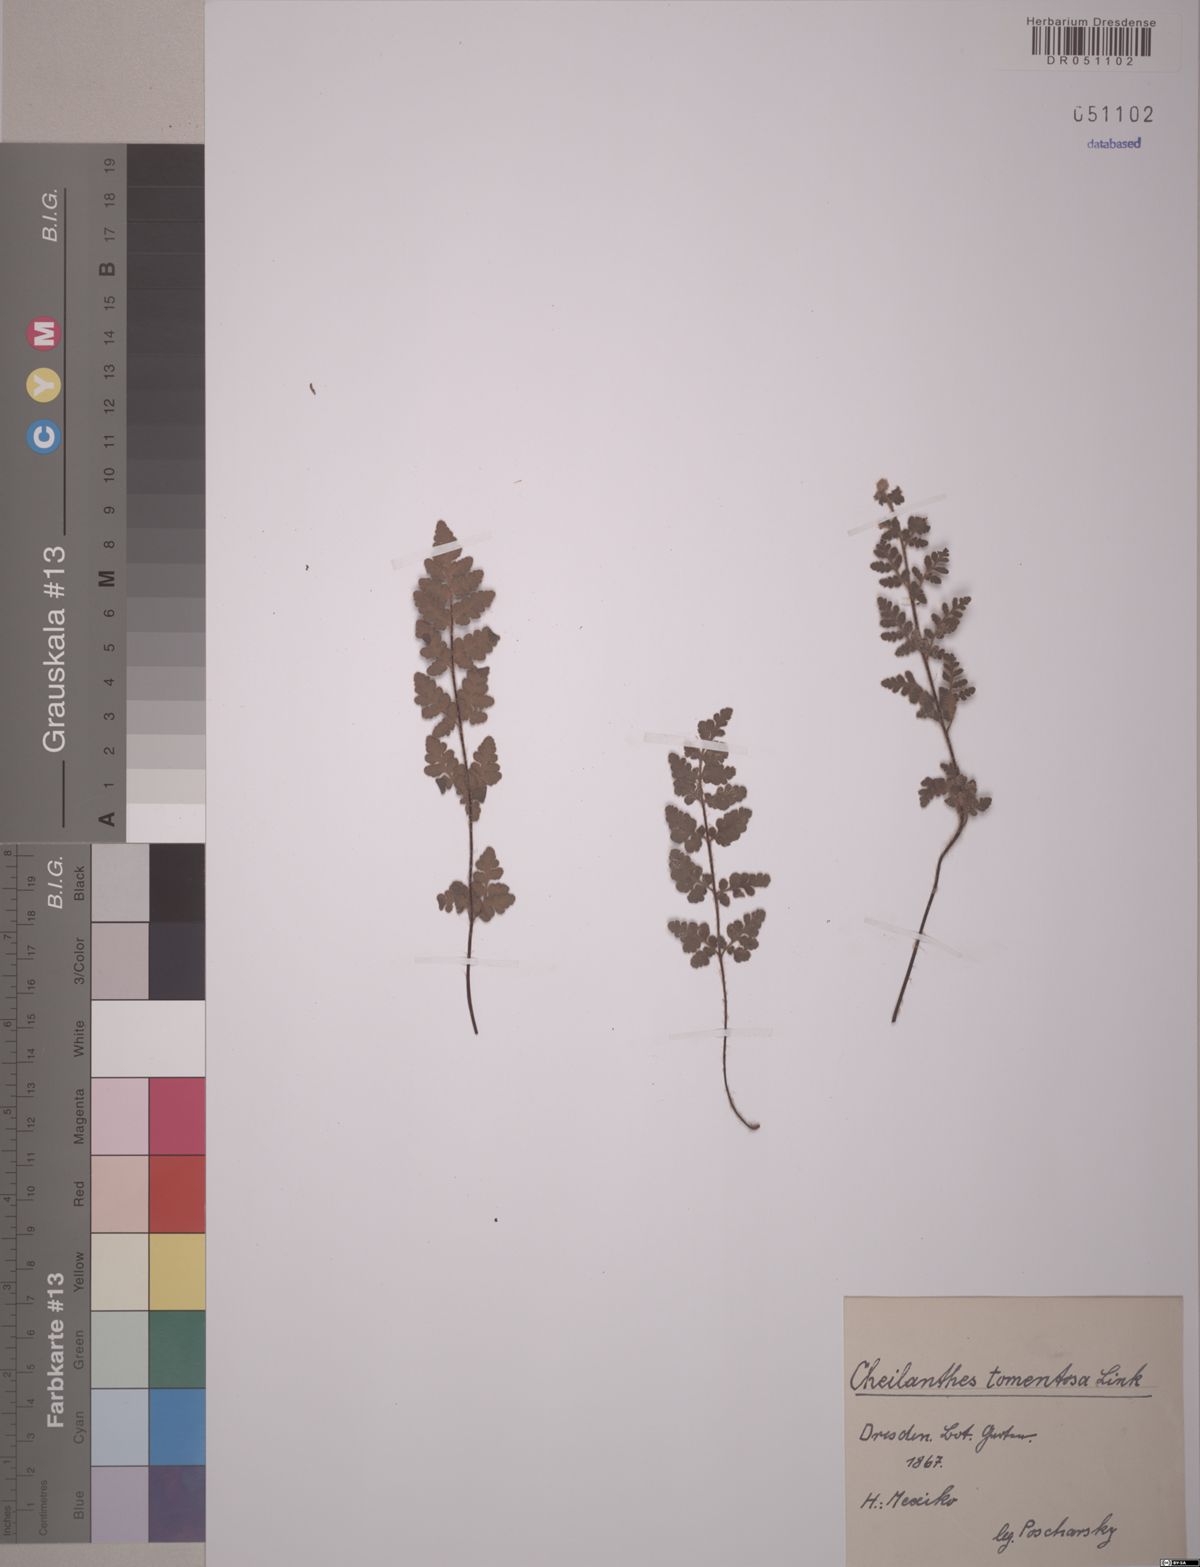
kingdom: Plantae
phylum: Tracheophyta
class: Polypodiopsida
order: Polypodiales
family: Pteridaceae
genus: Myriopteris
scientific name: Myriopteris tomentosa
